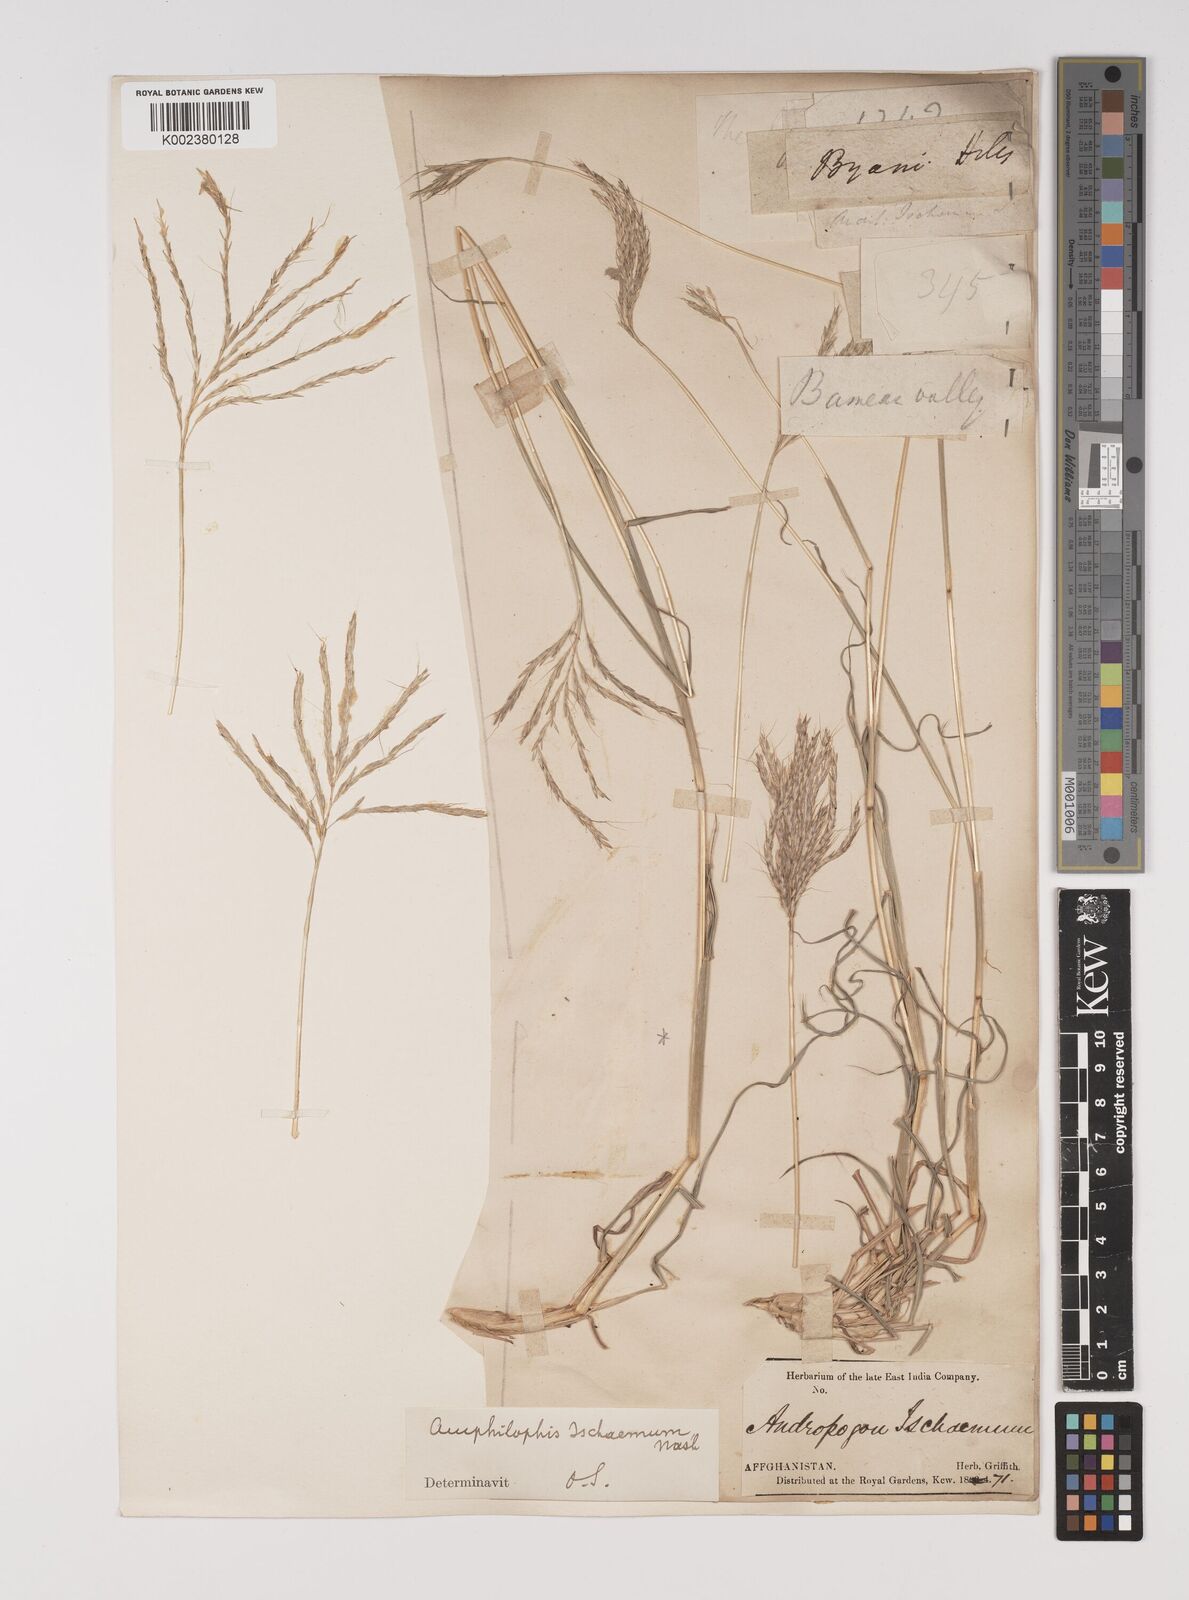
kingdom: Plantae
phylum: Tracheophyta
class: Liliopsida
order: Poales
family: Poaceae
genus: Bothriochloa
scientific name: Bothriochloa ischaemum
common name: Yellow bluestem
